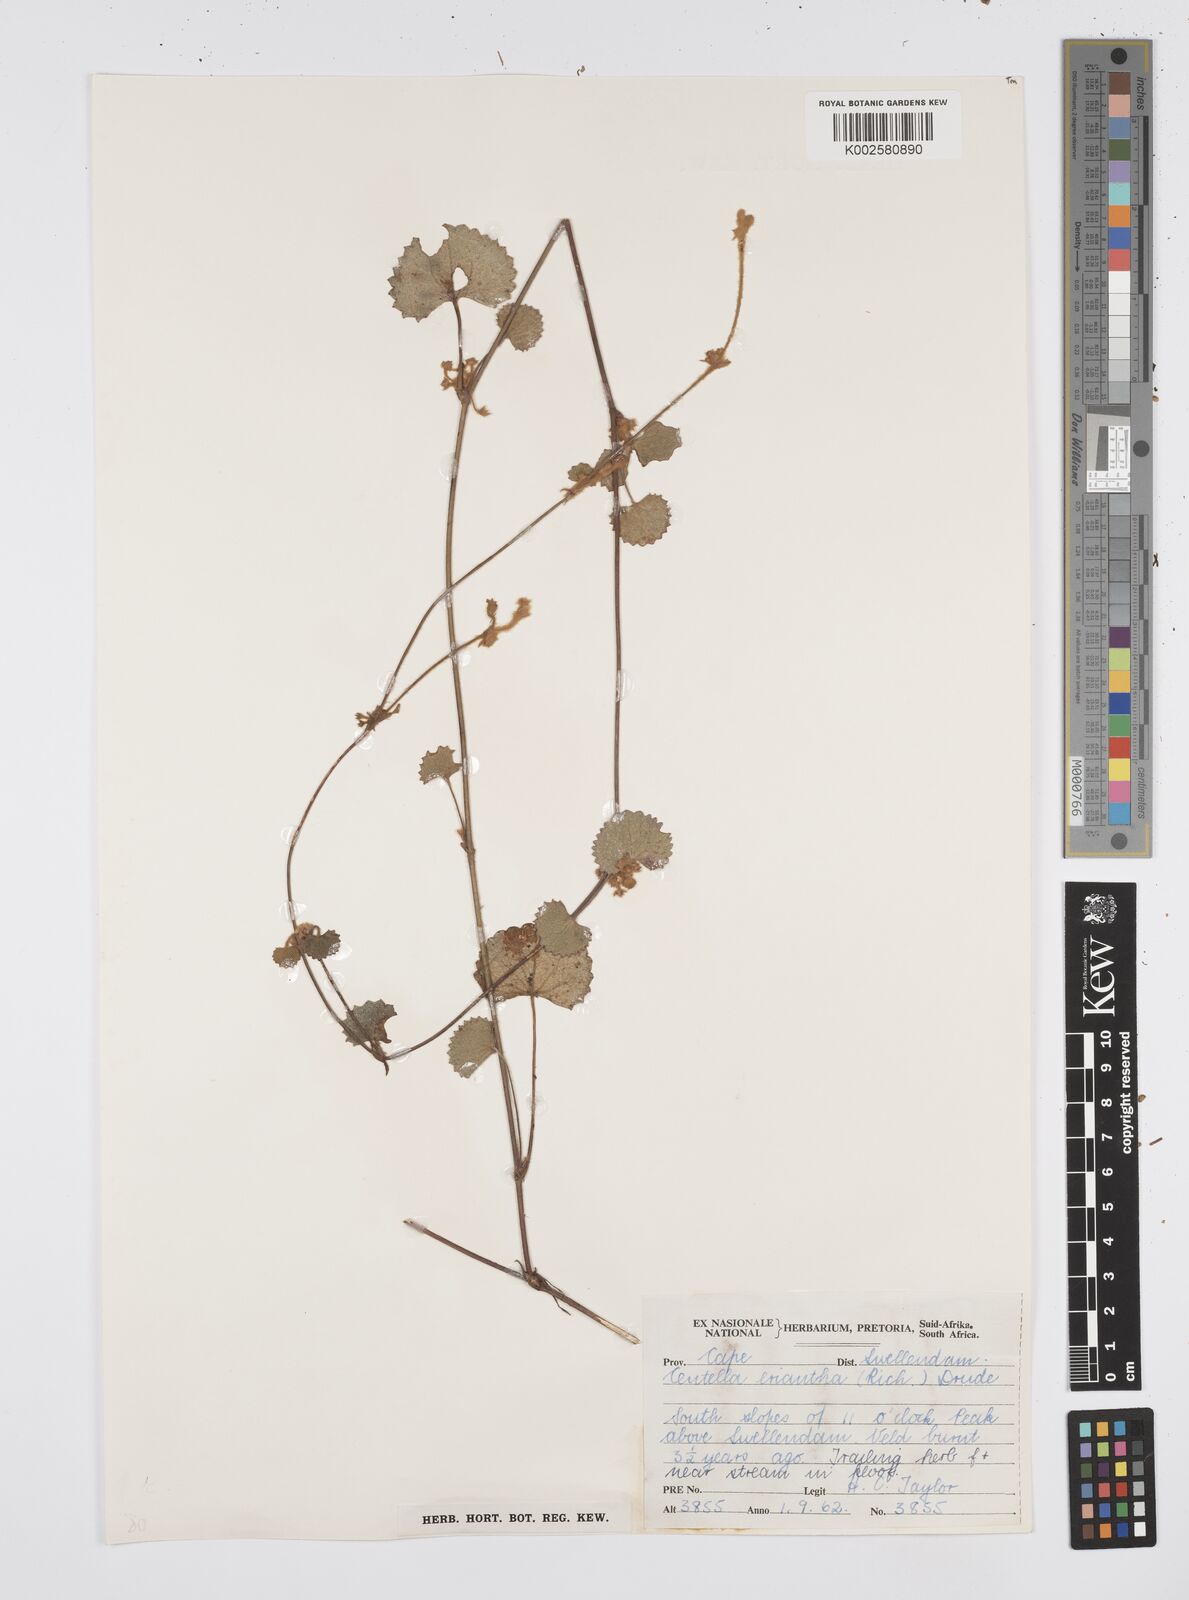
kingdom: Plantae
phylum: Tracheophyta
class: Magnoliopsida
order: Apiales
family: Apiaceae
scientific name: Apiaceae
